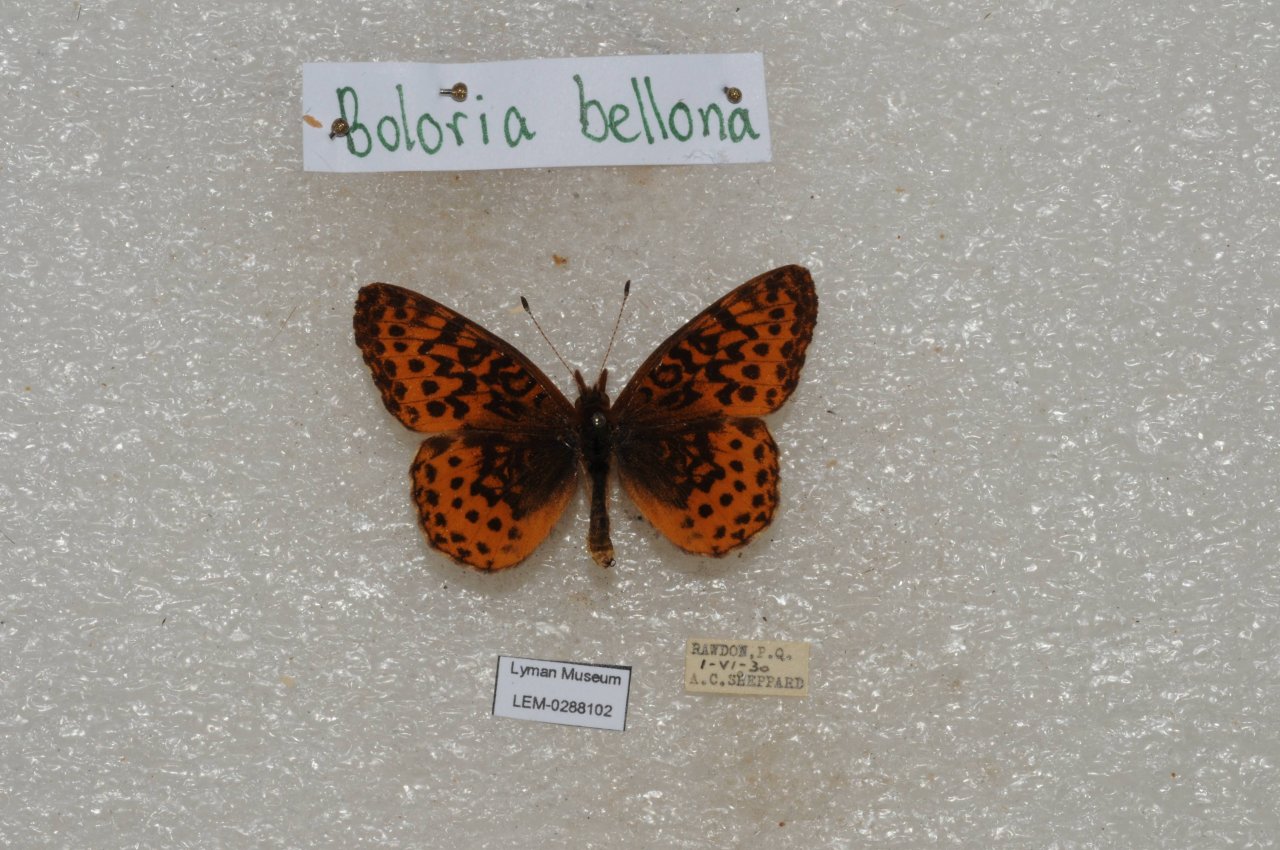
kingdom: Animalia
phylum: Arthropoda
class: Insecta
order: Lepidoptera
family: Nymphalidae
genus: Clossiana
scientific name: Clossiana toddi
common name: Meadow Fritillary
